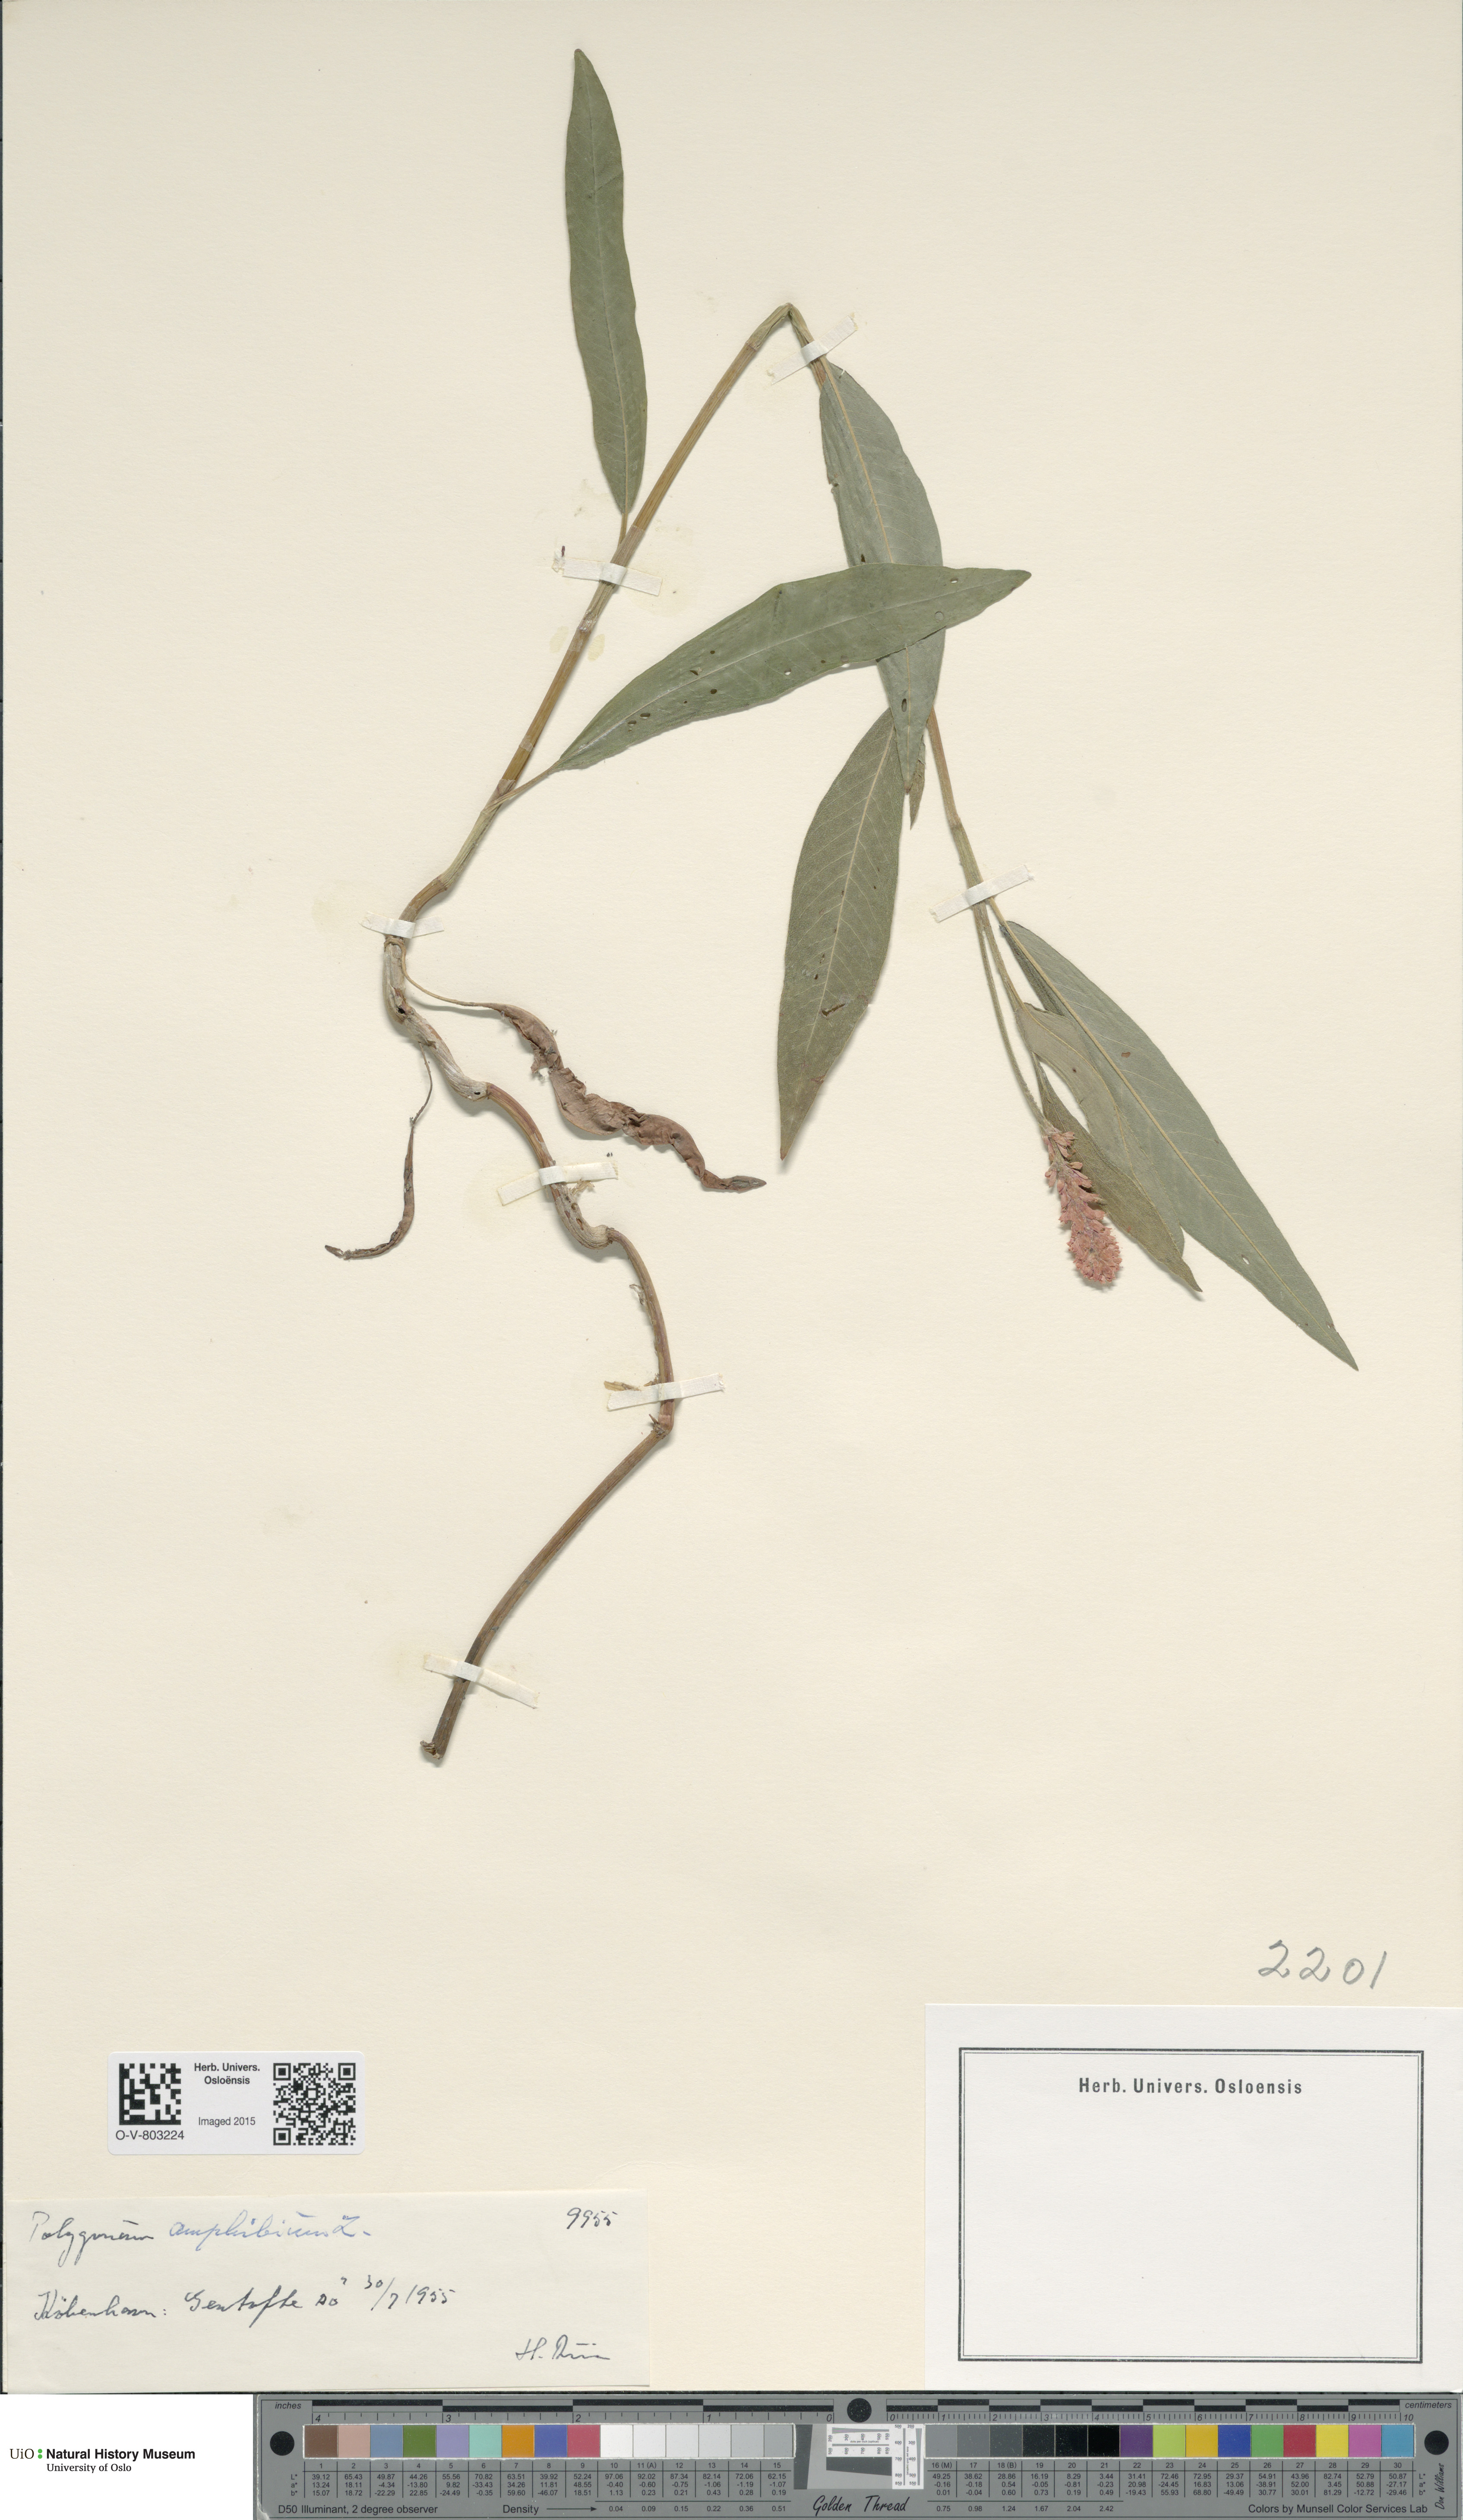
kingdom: Plantae
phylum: Tracheophyta
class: Magnoliopsida
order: Caryophyllales
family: Polygonaceae
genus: Persicaria
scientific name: Persicaria amphibia
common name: Amphibious bistort
